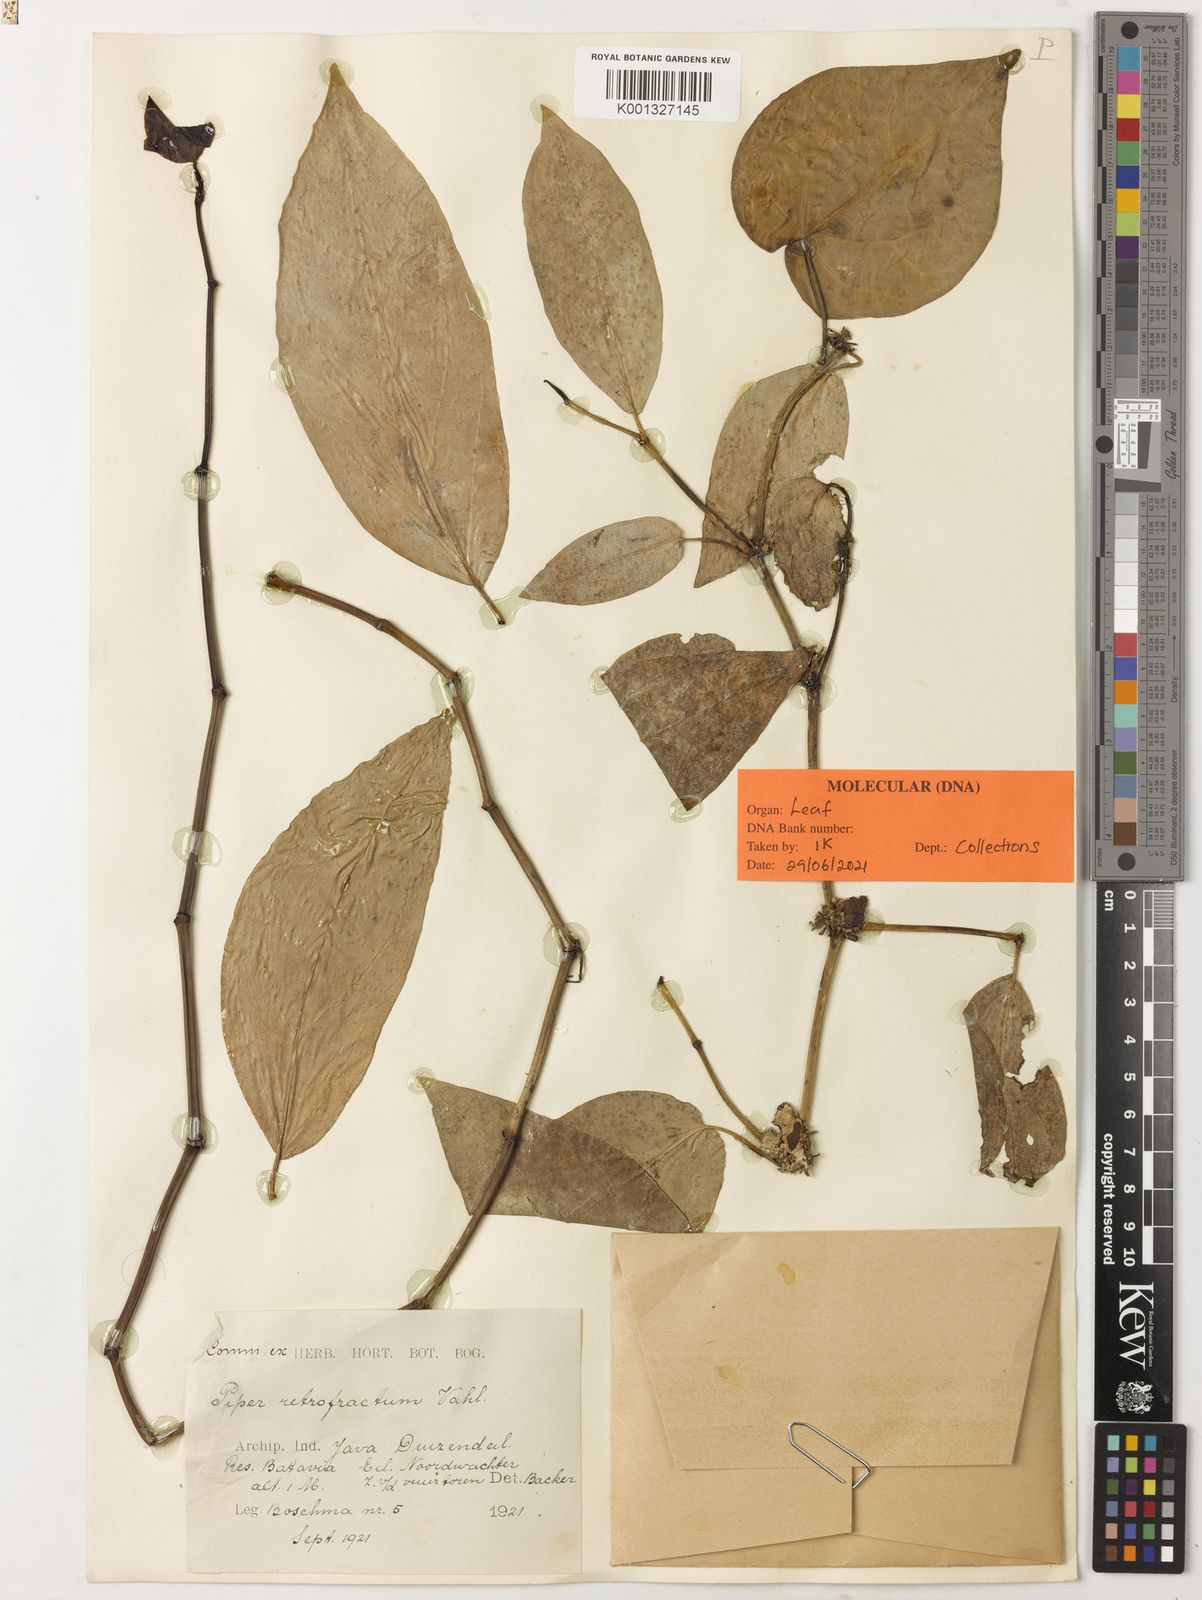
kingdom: Plantae
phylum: Tracheophyta
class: Magnoliopsida
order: Piperales
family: Piperaceae
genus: Piper
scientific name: Piper retrofractum
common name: Javanese long pepper
